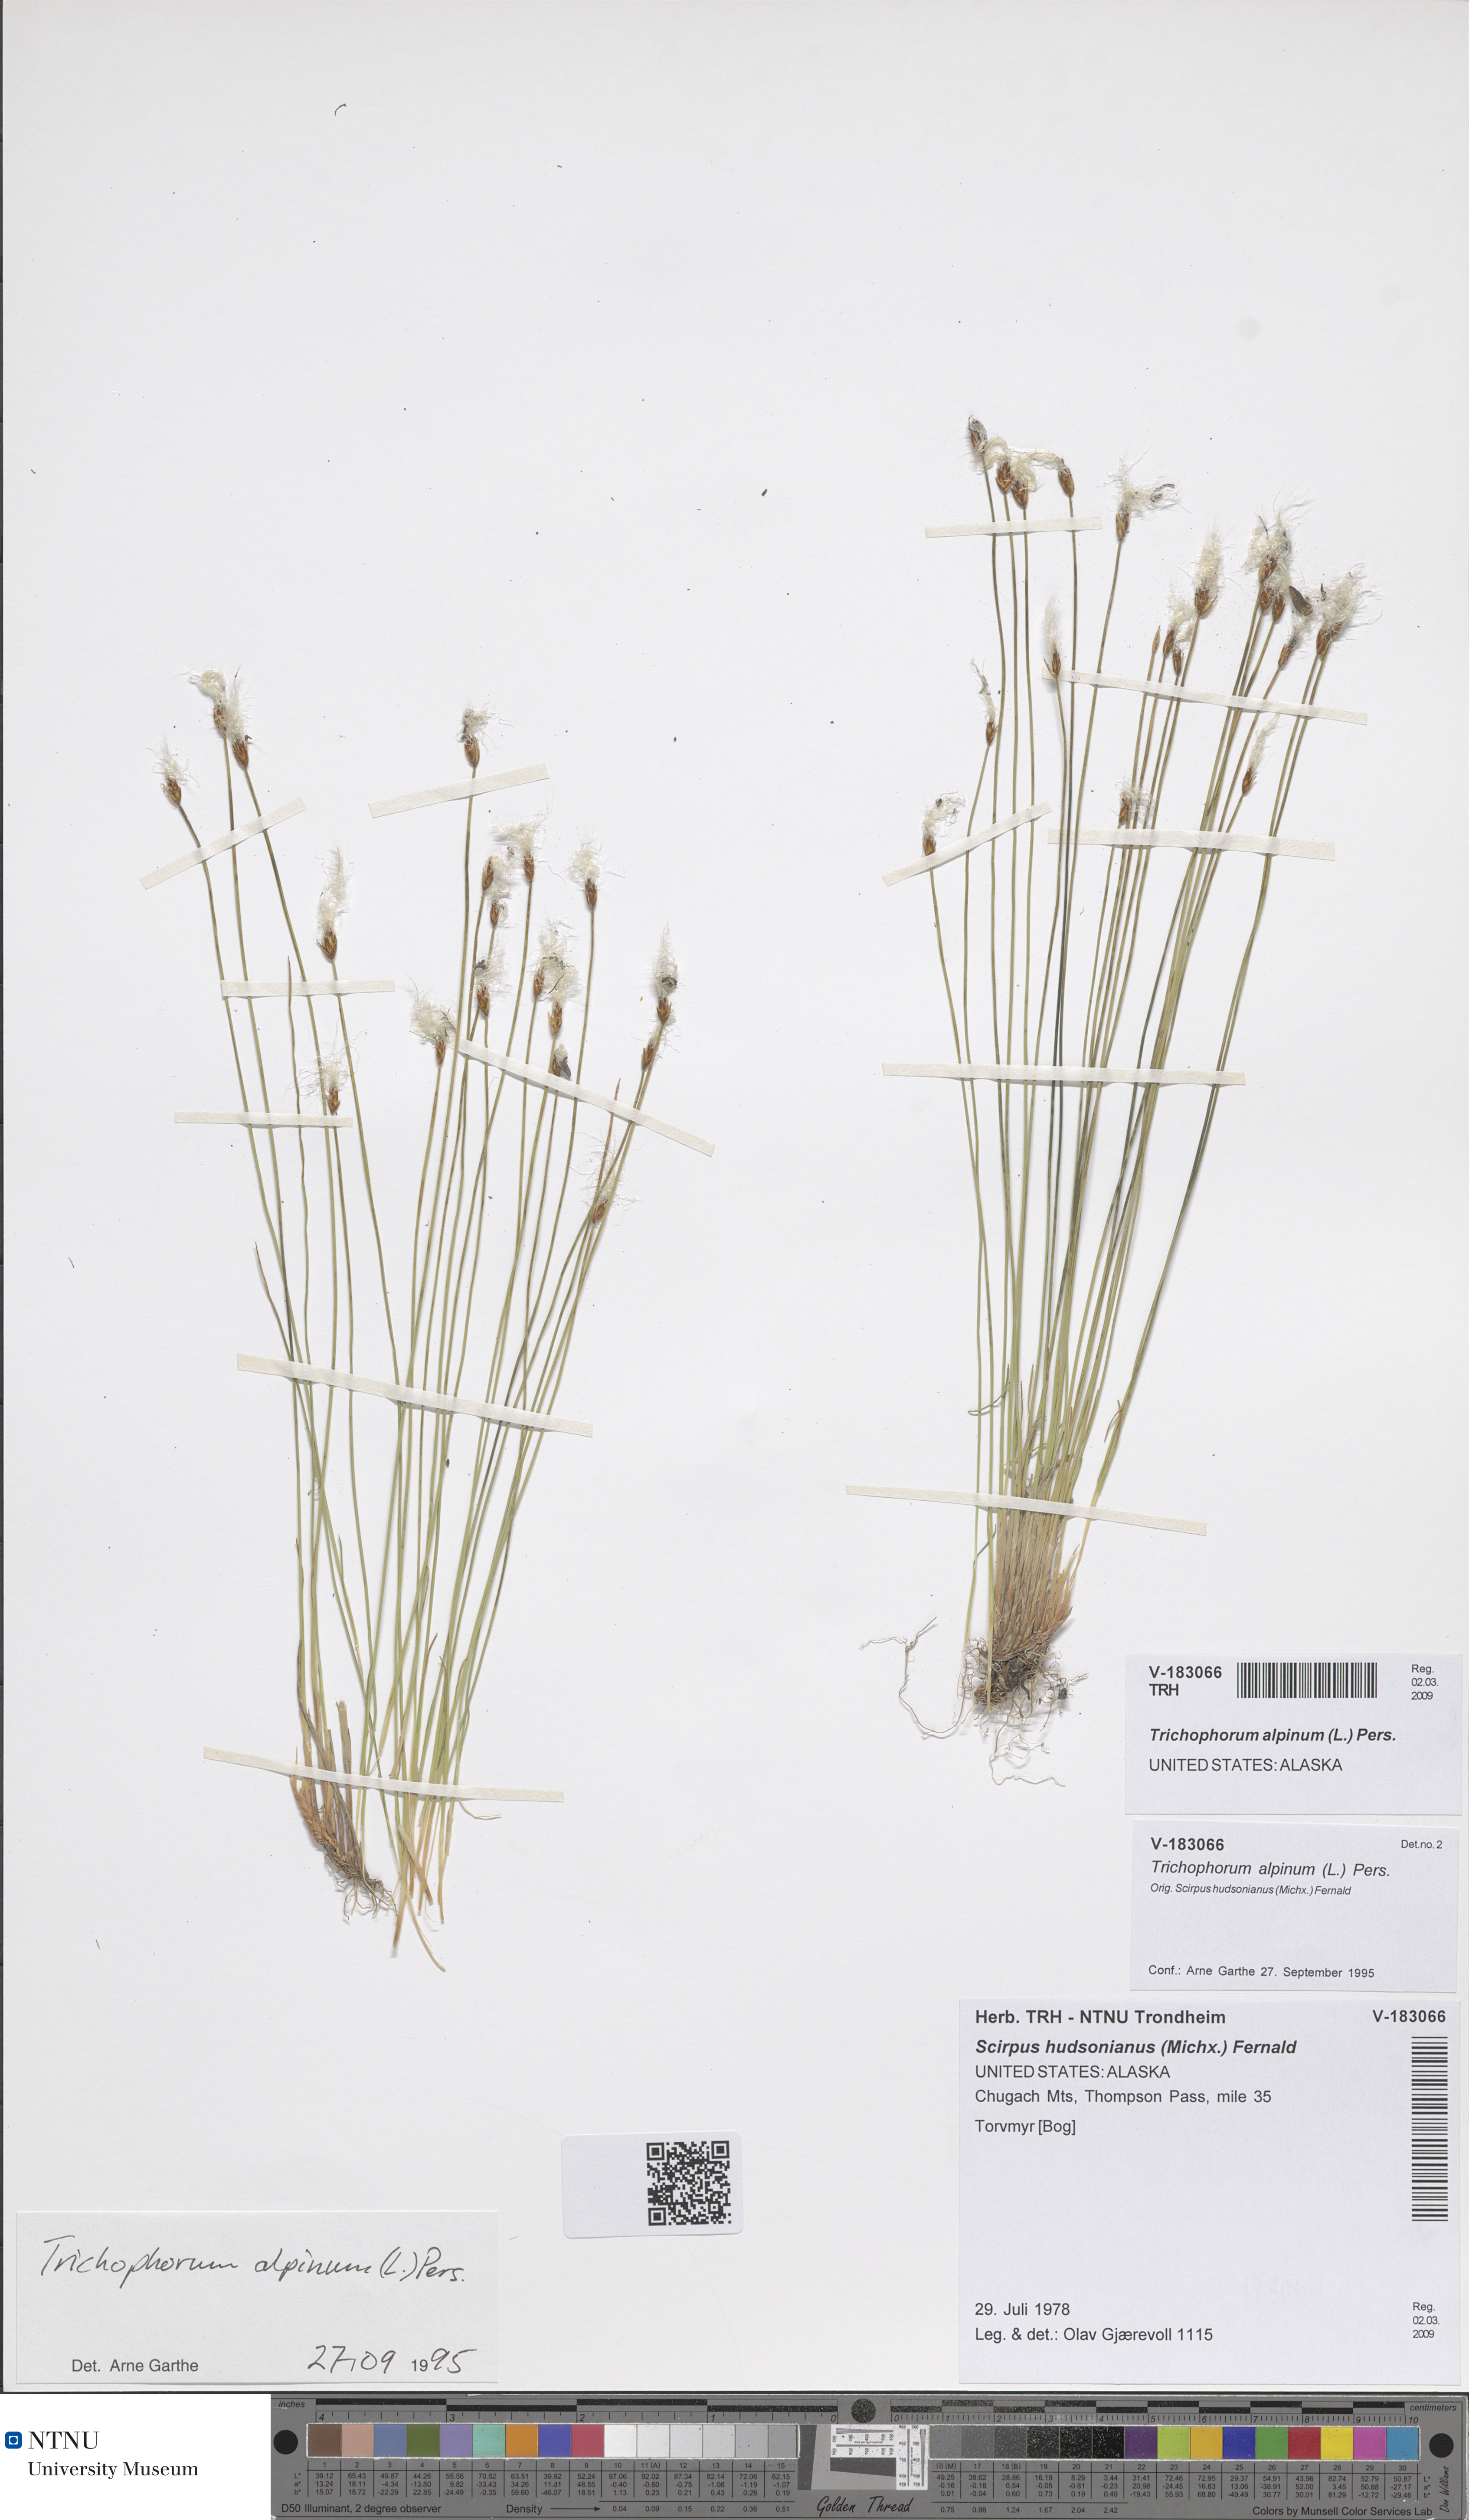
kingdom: Plantae
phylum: Tracheophyta
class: Liliopsida
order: Poales
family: Cyperaceae
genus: Trichophorum
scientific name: Trichophorum alpinum
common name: Alpine bulrush
